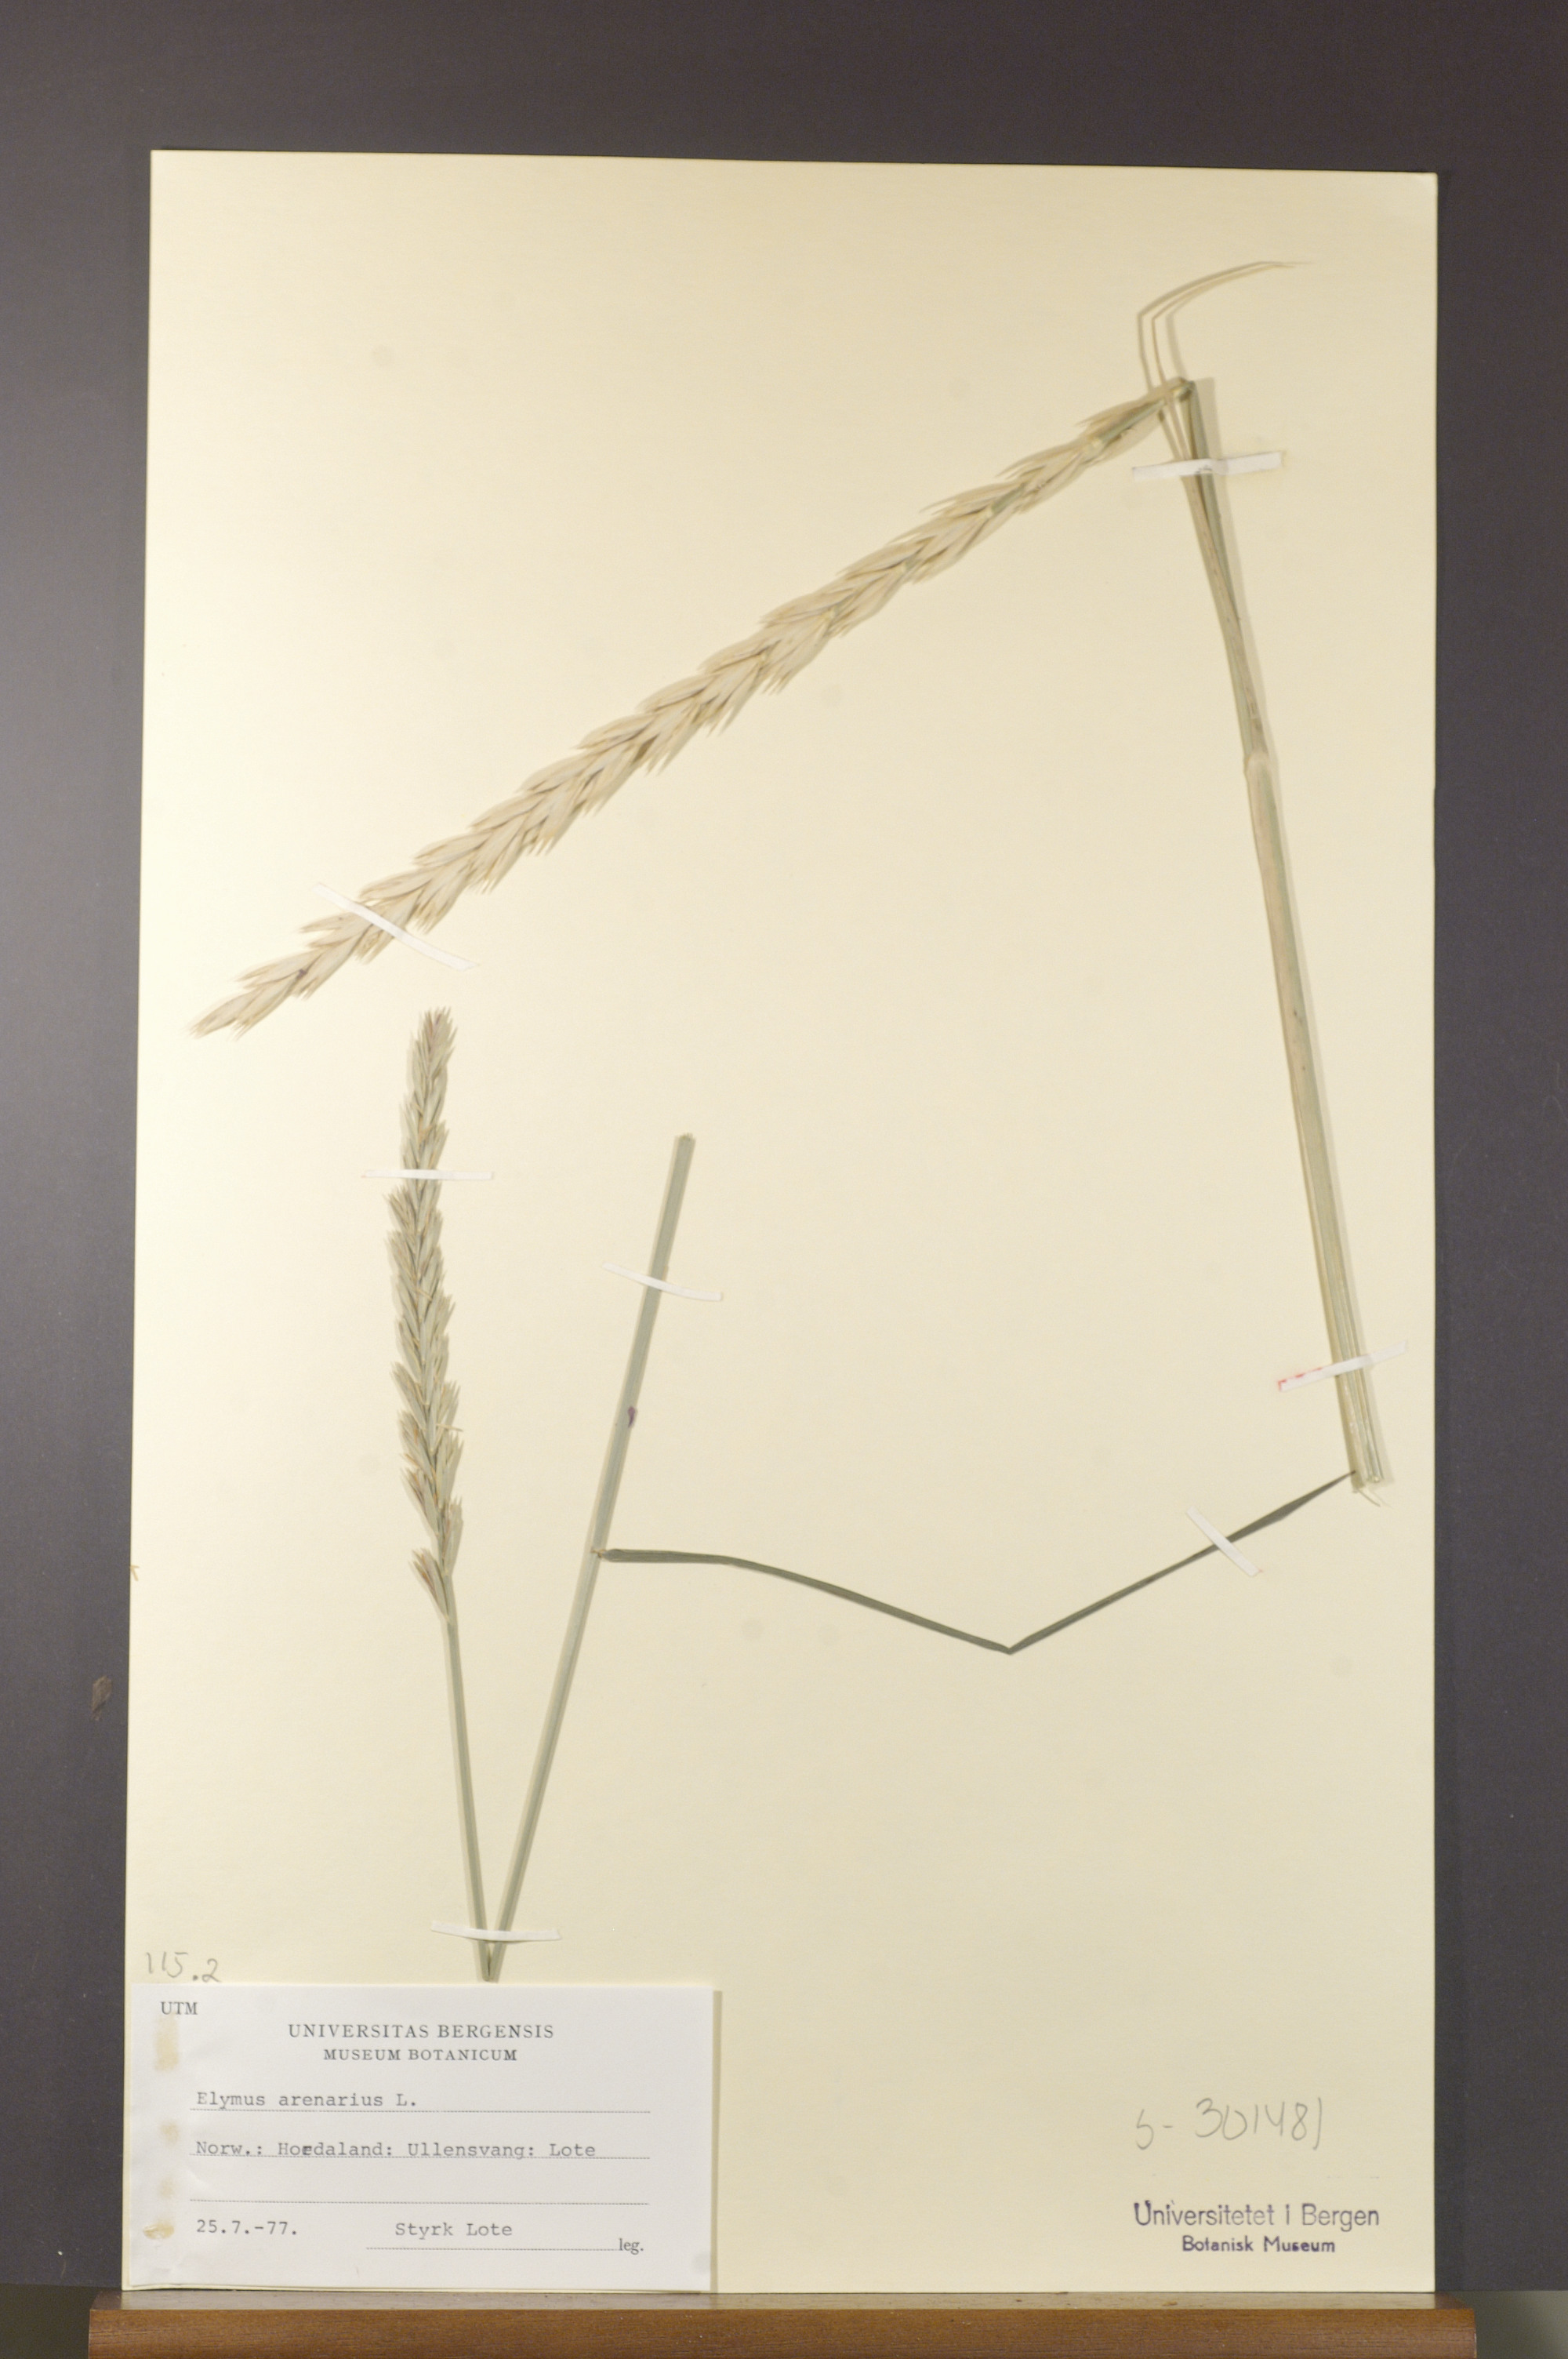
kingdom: Plantae
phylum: Tracheophyta
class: Liliopsida
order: Poales
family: Poaceae
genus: Leymus
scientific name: Leymus arenarius
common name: Lyme-grass
